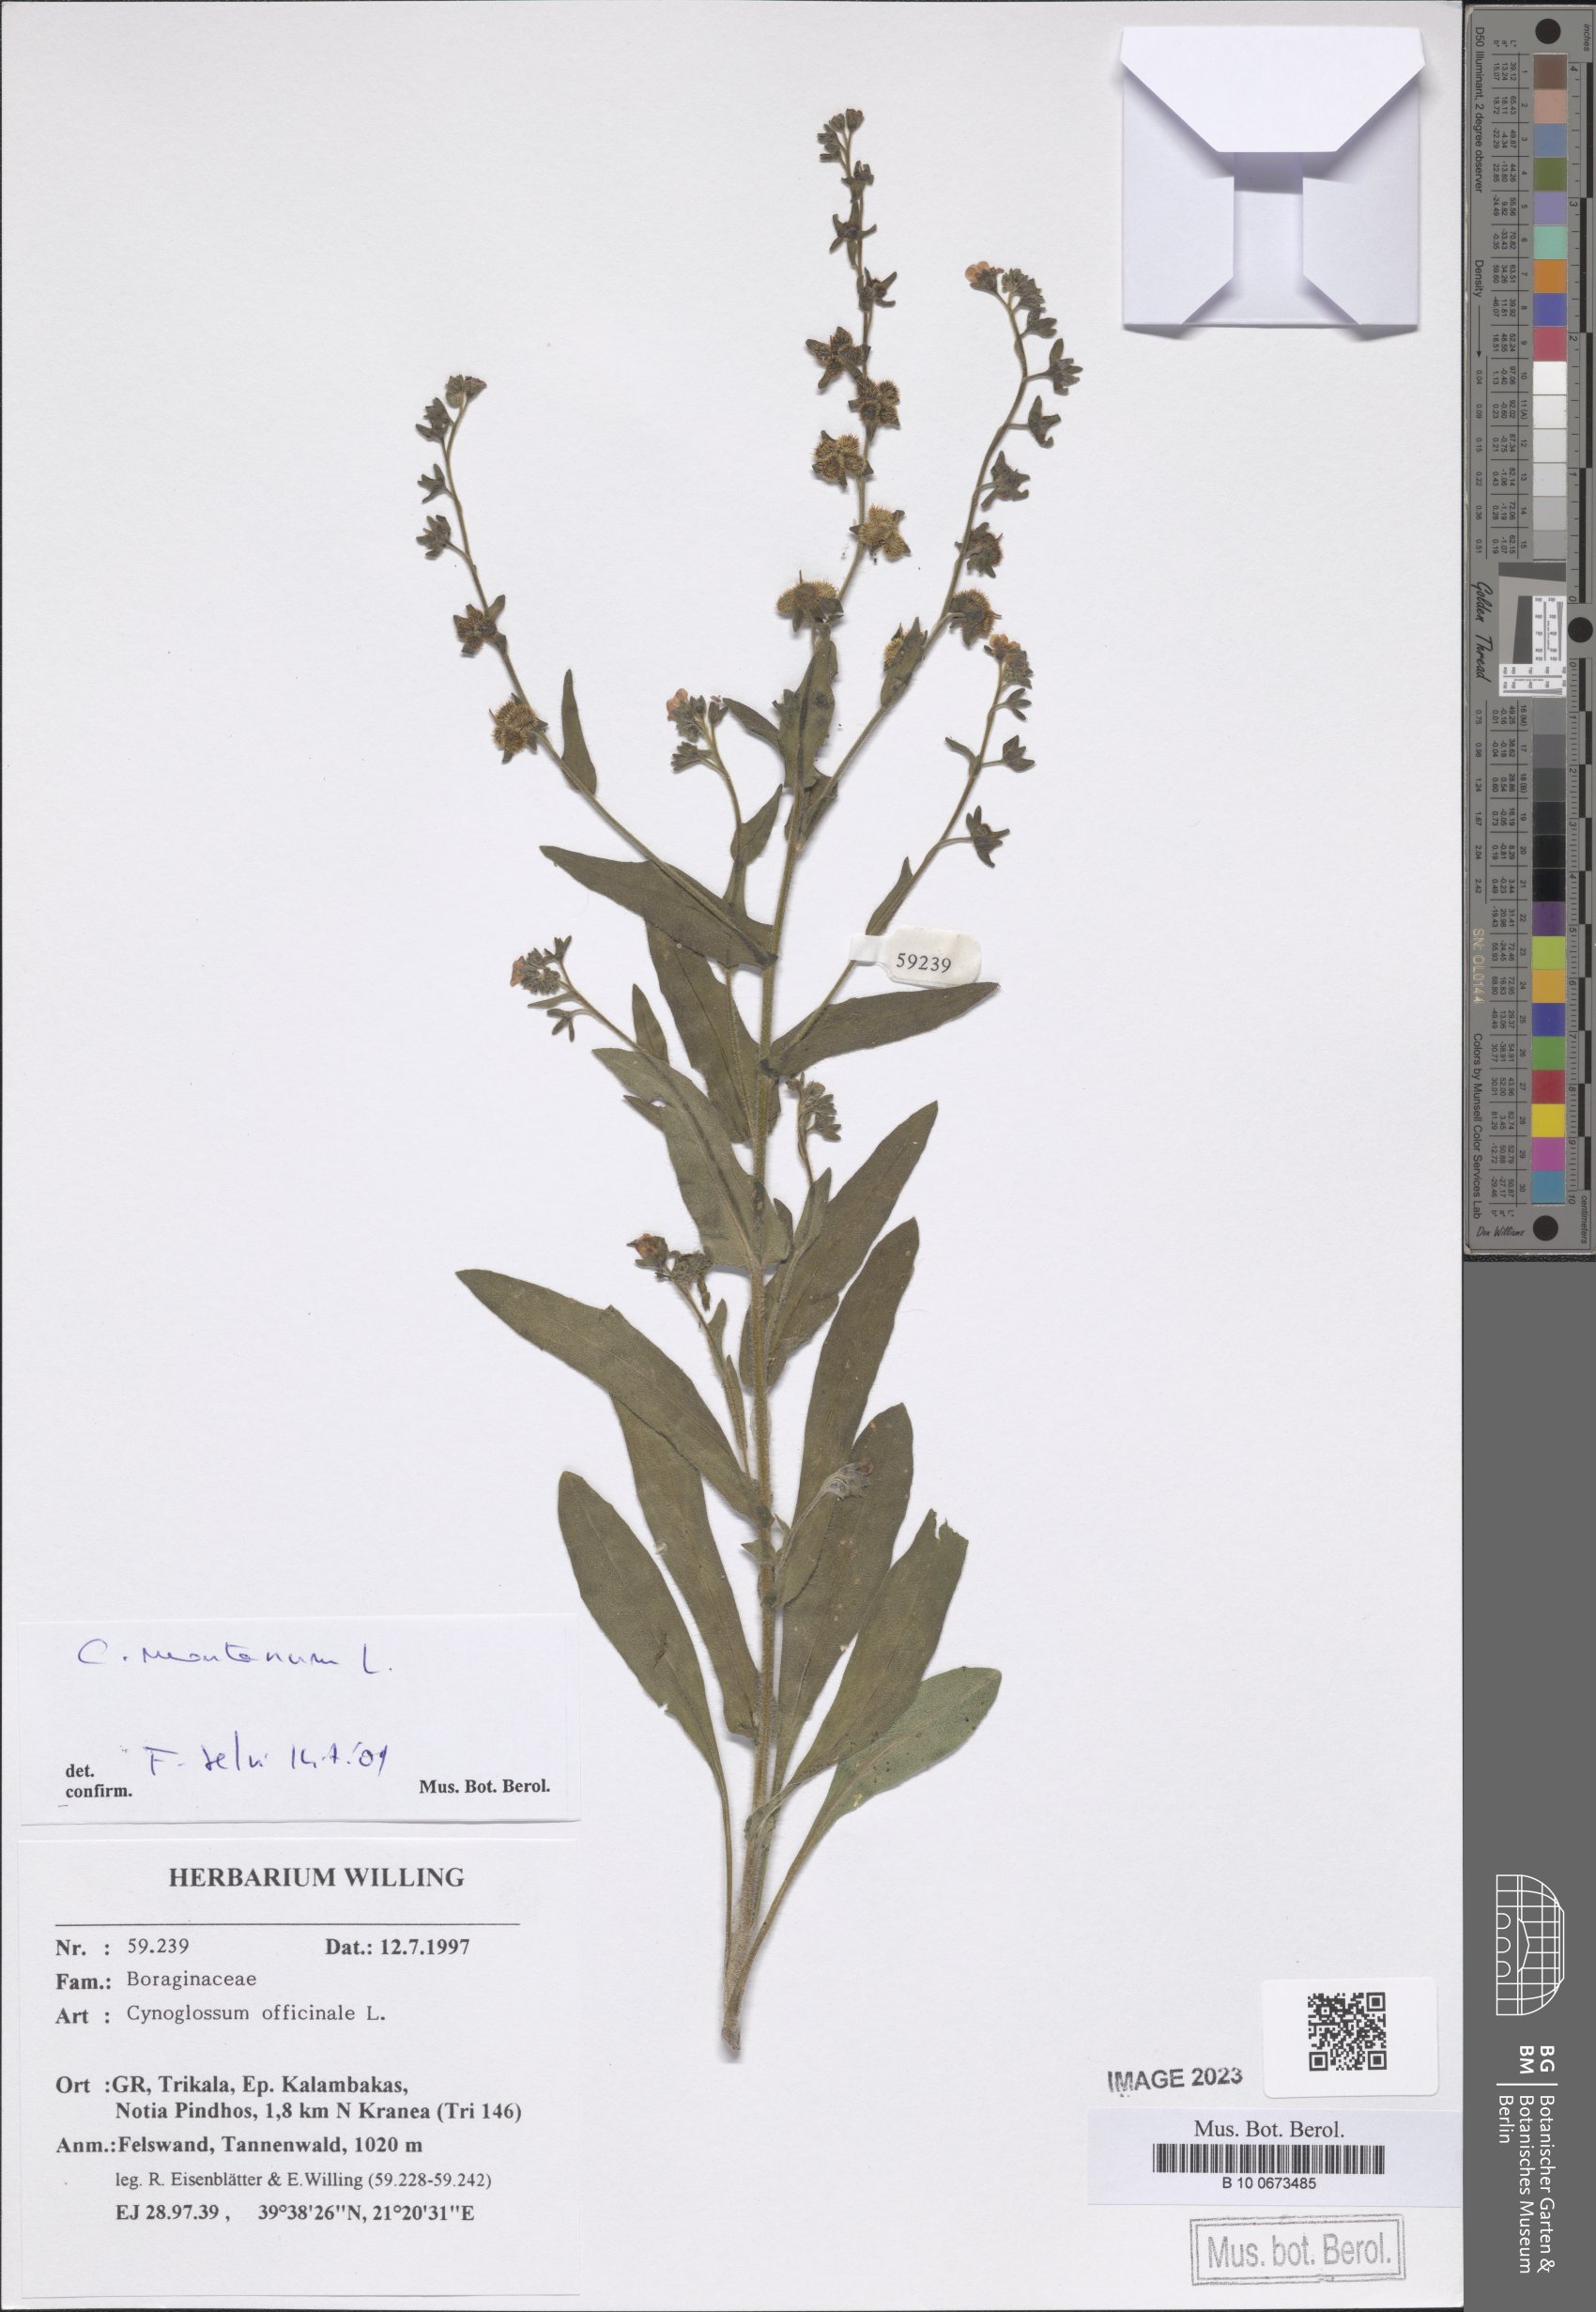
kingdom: Plantae
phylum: Tracheophyta
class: Magnoliopsida
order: Boraginales
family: Boraginaceae
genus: Cynoglossum
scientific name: Cynoglossum montanum
